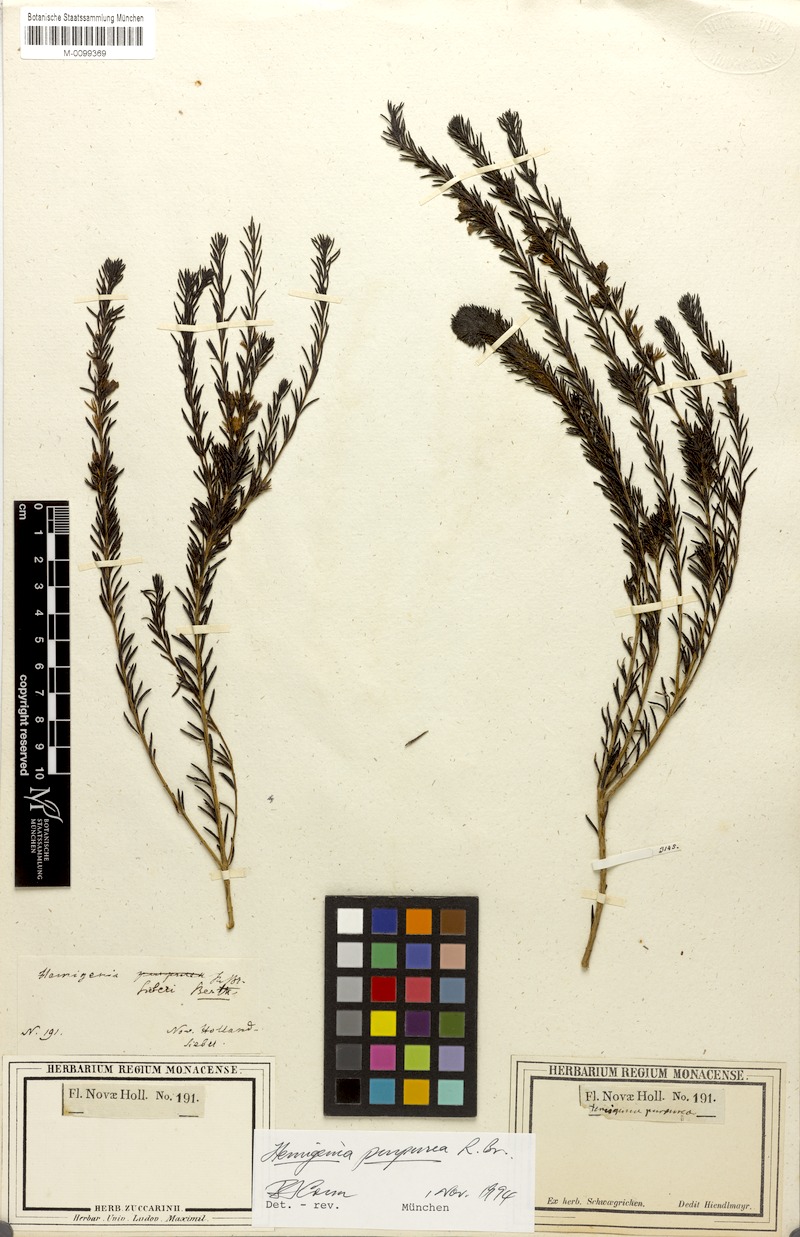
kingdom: Plantae
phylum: Tracheophyta
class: Magnoliopsida
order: Lamiales
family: Lamiaceae
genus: Hemigenia
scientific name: Hemigenia purpurea
